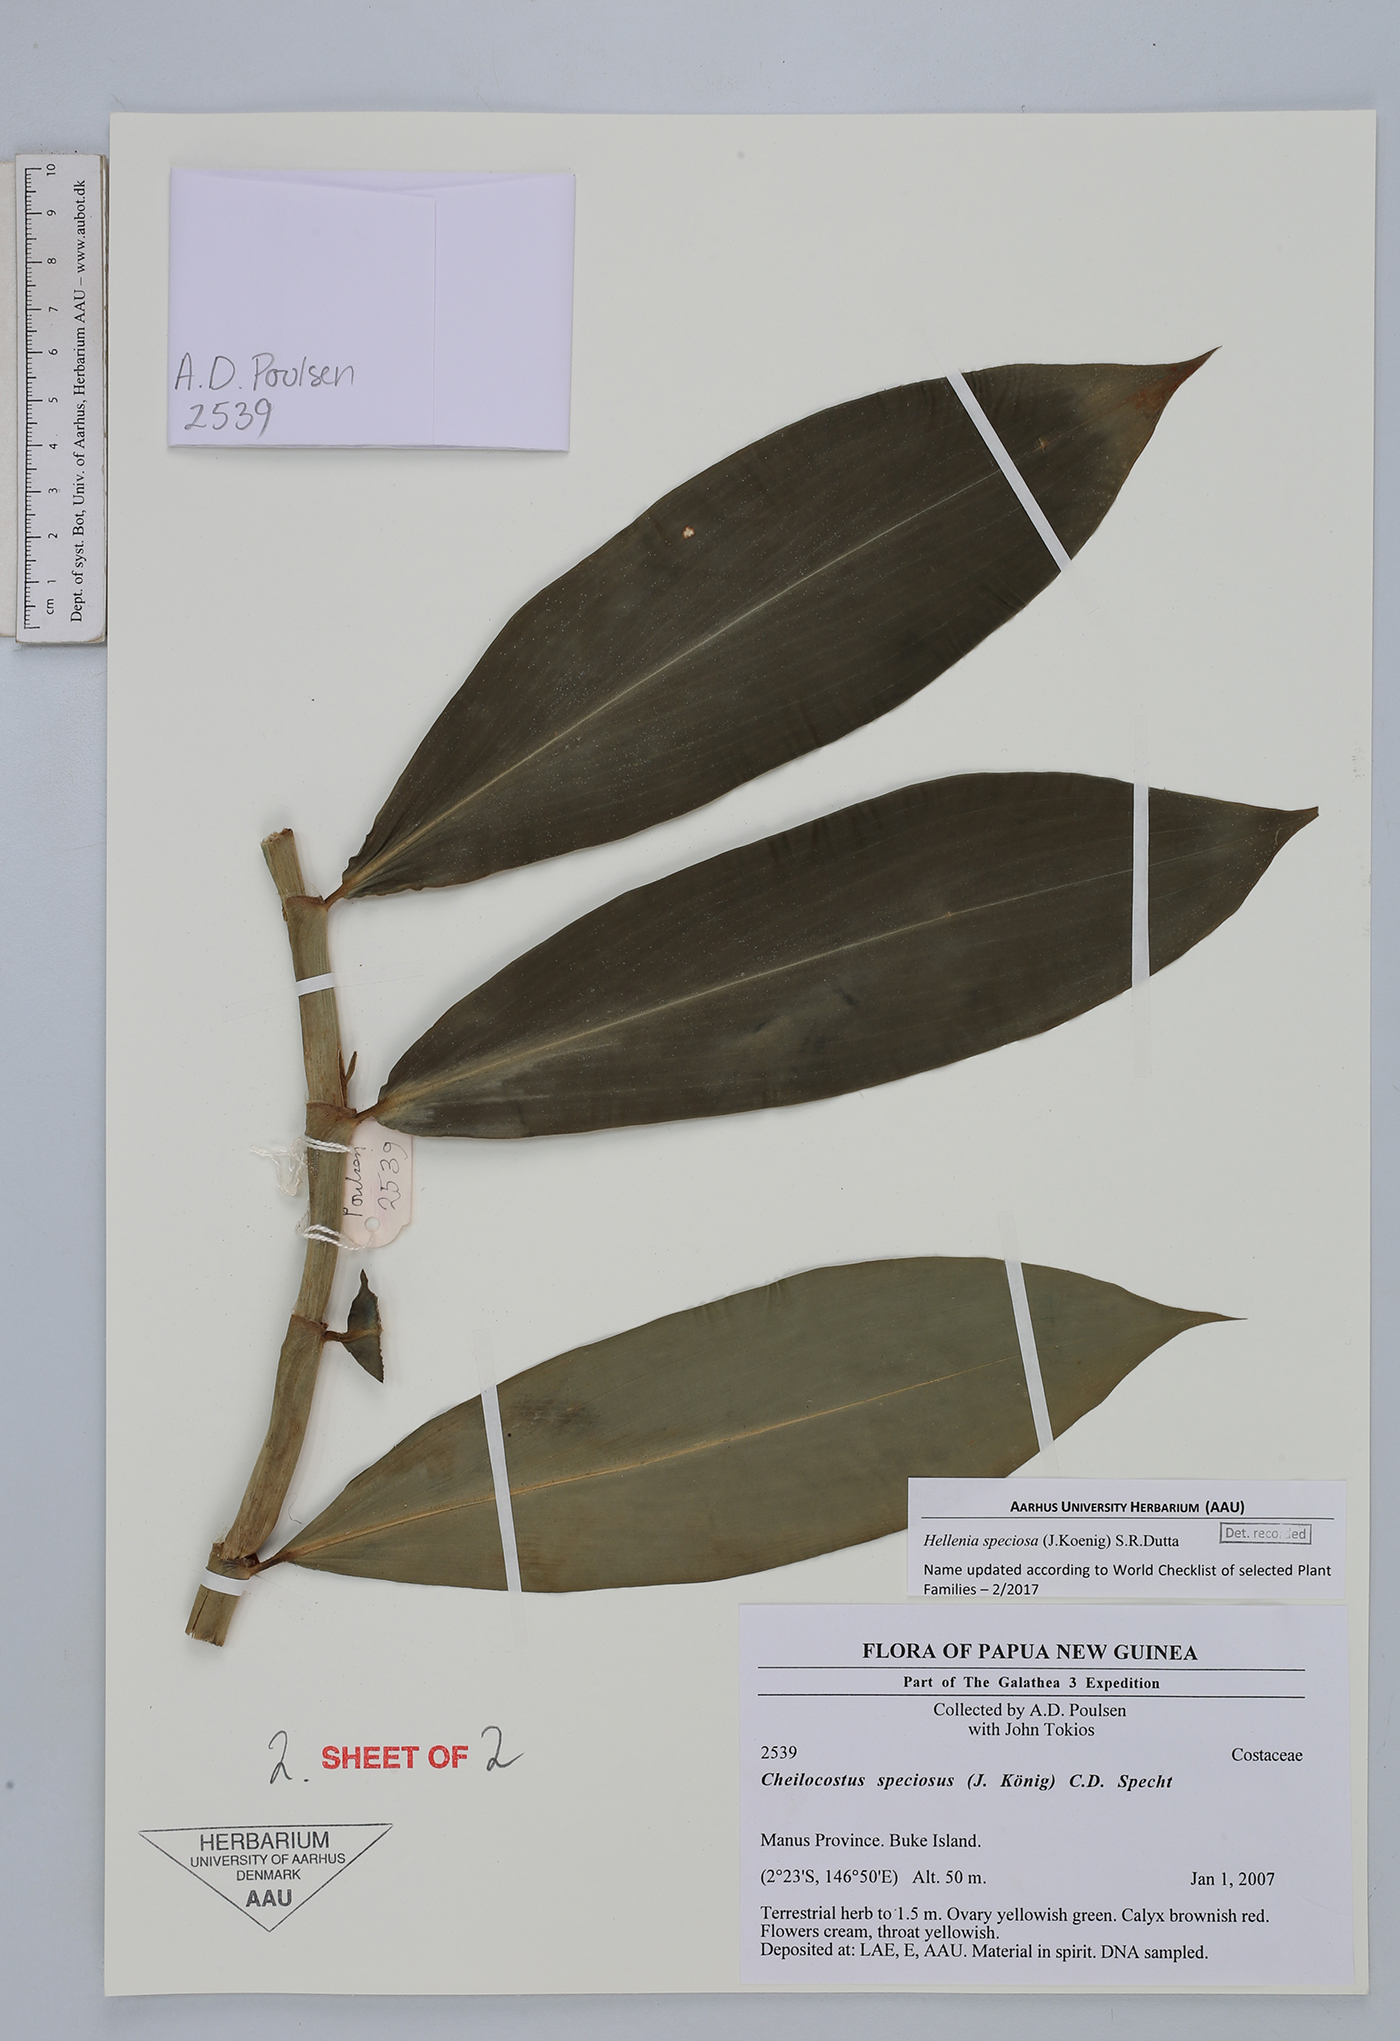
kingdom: Plantae
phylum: Tracheophyta
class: Liliopsida
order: Zingiberales
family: Costaceae
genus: Hellenia
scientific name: Hellenia speciosa
